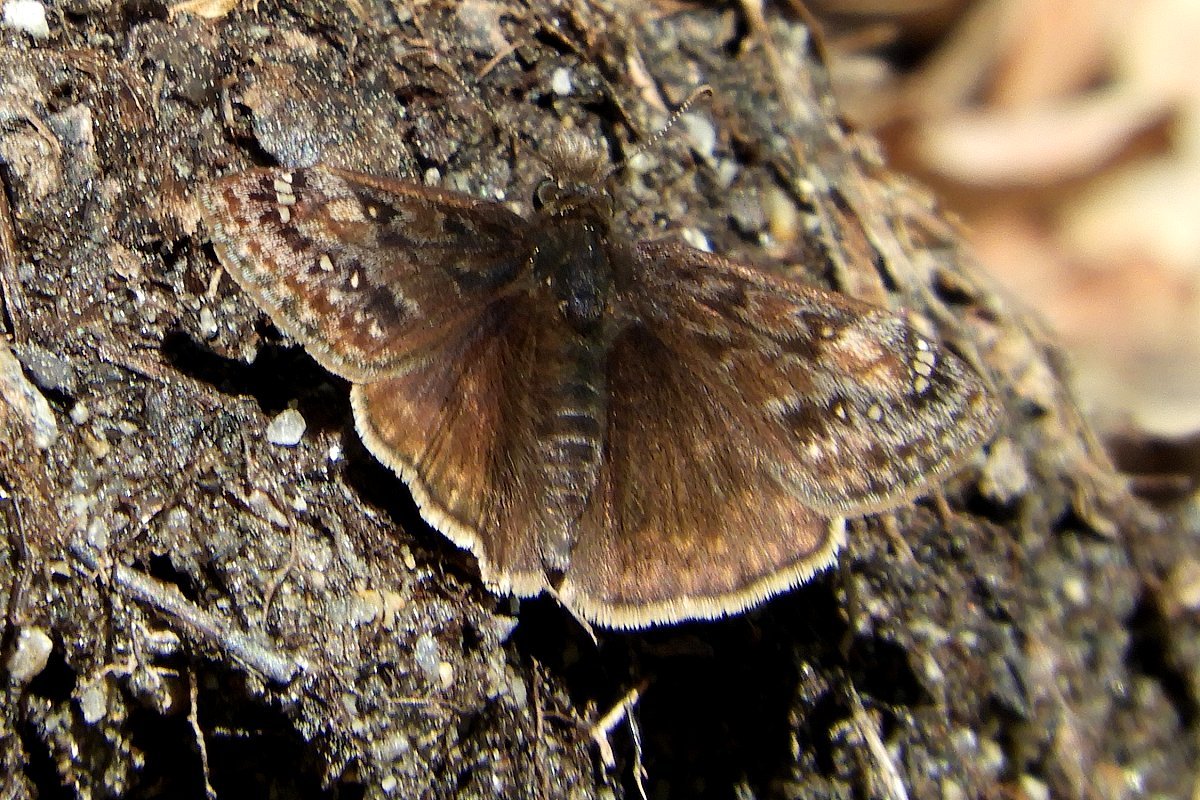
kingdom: Animalia
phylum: Arthropoda
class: Insecta
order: Lepidoptera
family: Hesperiidae
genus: Gesta
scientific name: Gesta
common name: Juvenal's Duskywing
